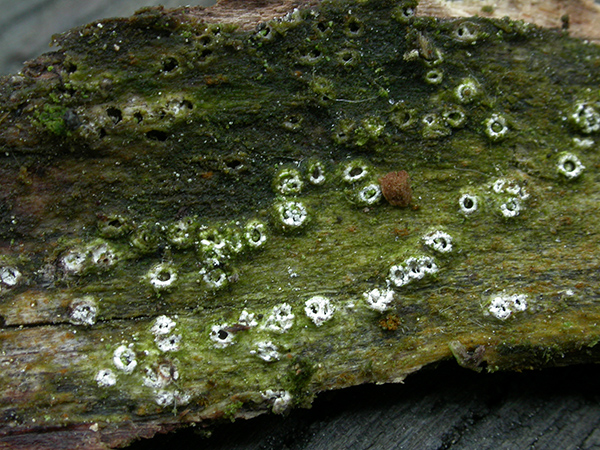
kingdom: Fungi
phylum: Ascomycota
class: Lecanoromycetes
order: Ostropales
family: Stictidaceae
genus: Stictis
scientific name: Stictis radiata
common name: tandet barkhul
